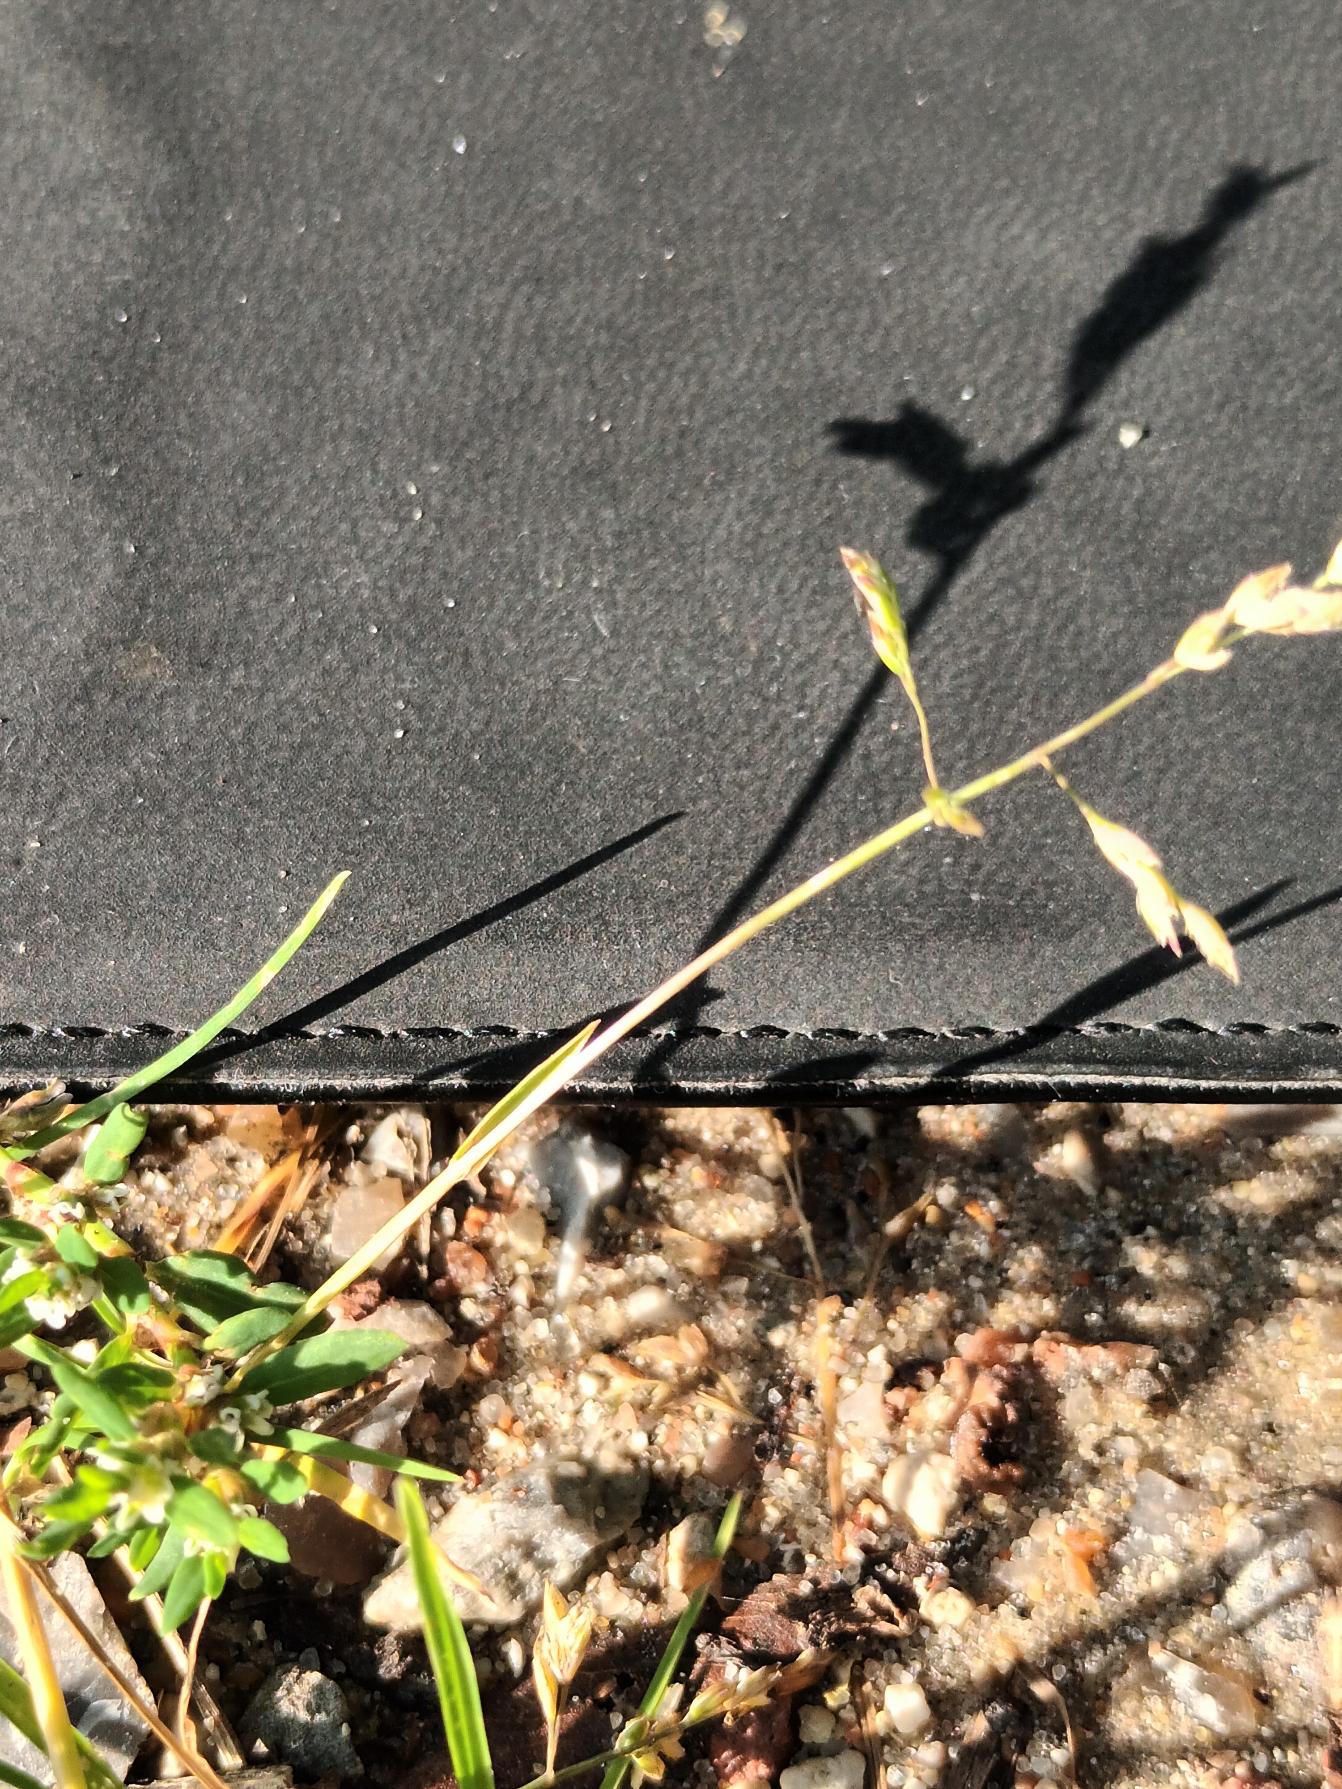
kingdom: Plantae
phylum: Tracheophyta
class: Liliopsida
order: Poales
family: Poaceae
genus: Poa
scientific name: Poa annua
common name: Enårig rapgræs
